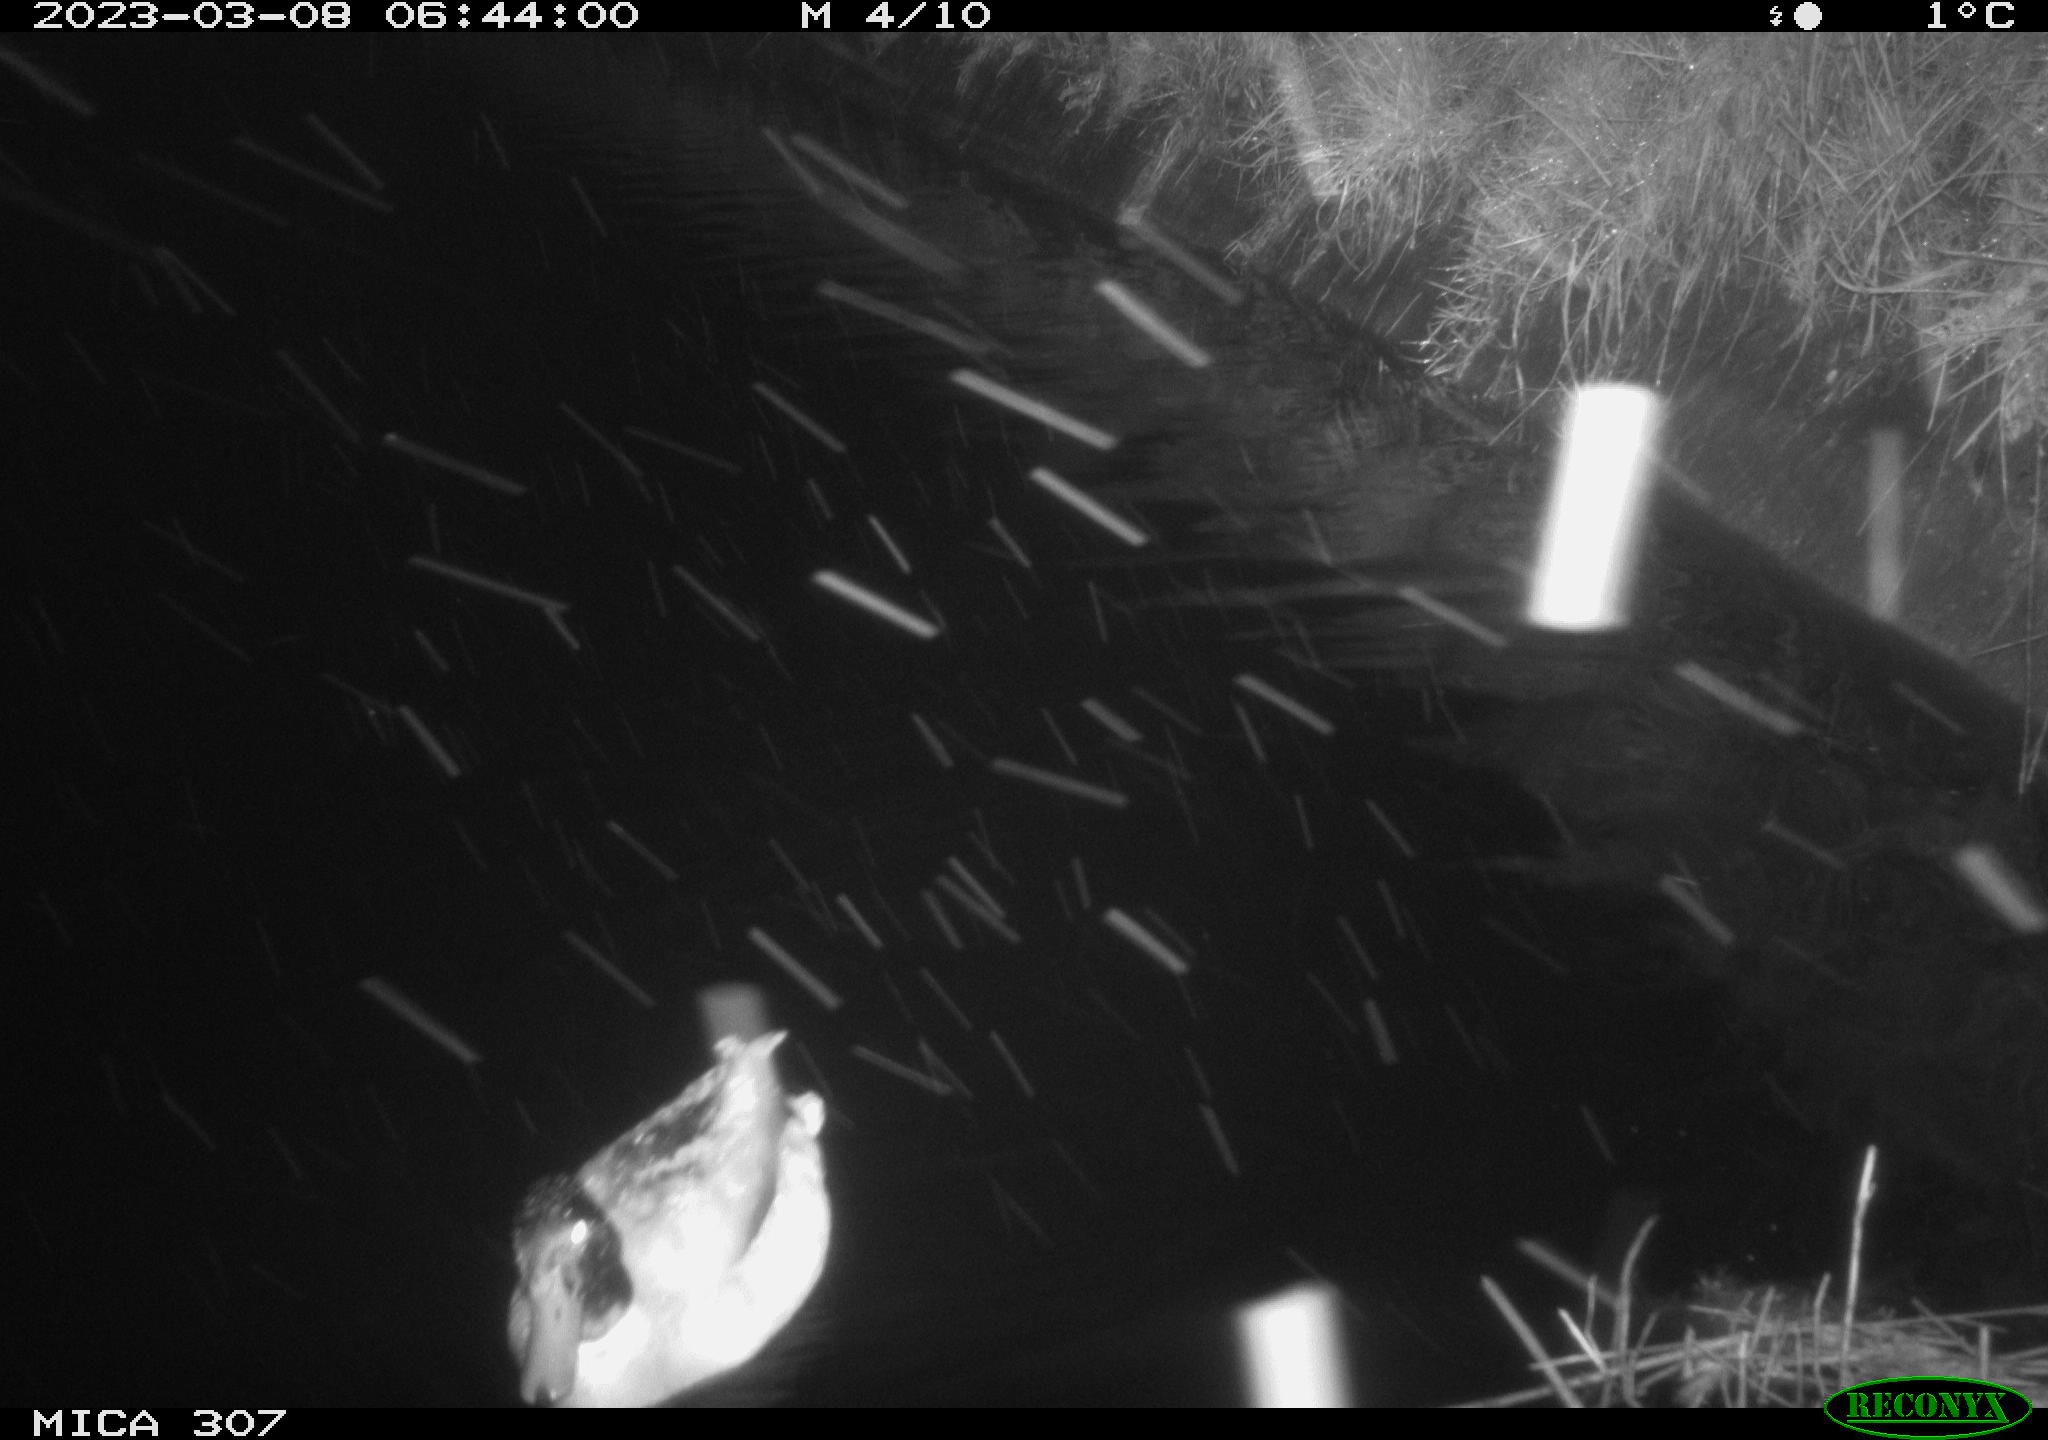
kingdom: Animalia
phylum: Chordata
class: Aves
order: Anseriformes
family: Anatidae
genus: Anas
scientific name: Anas
